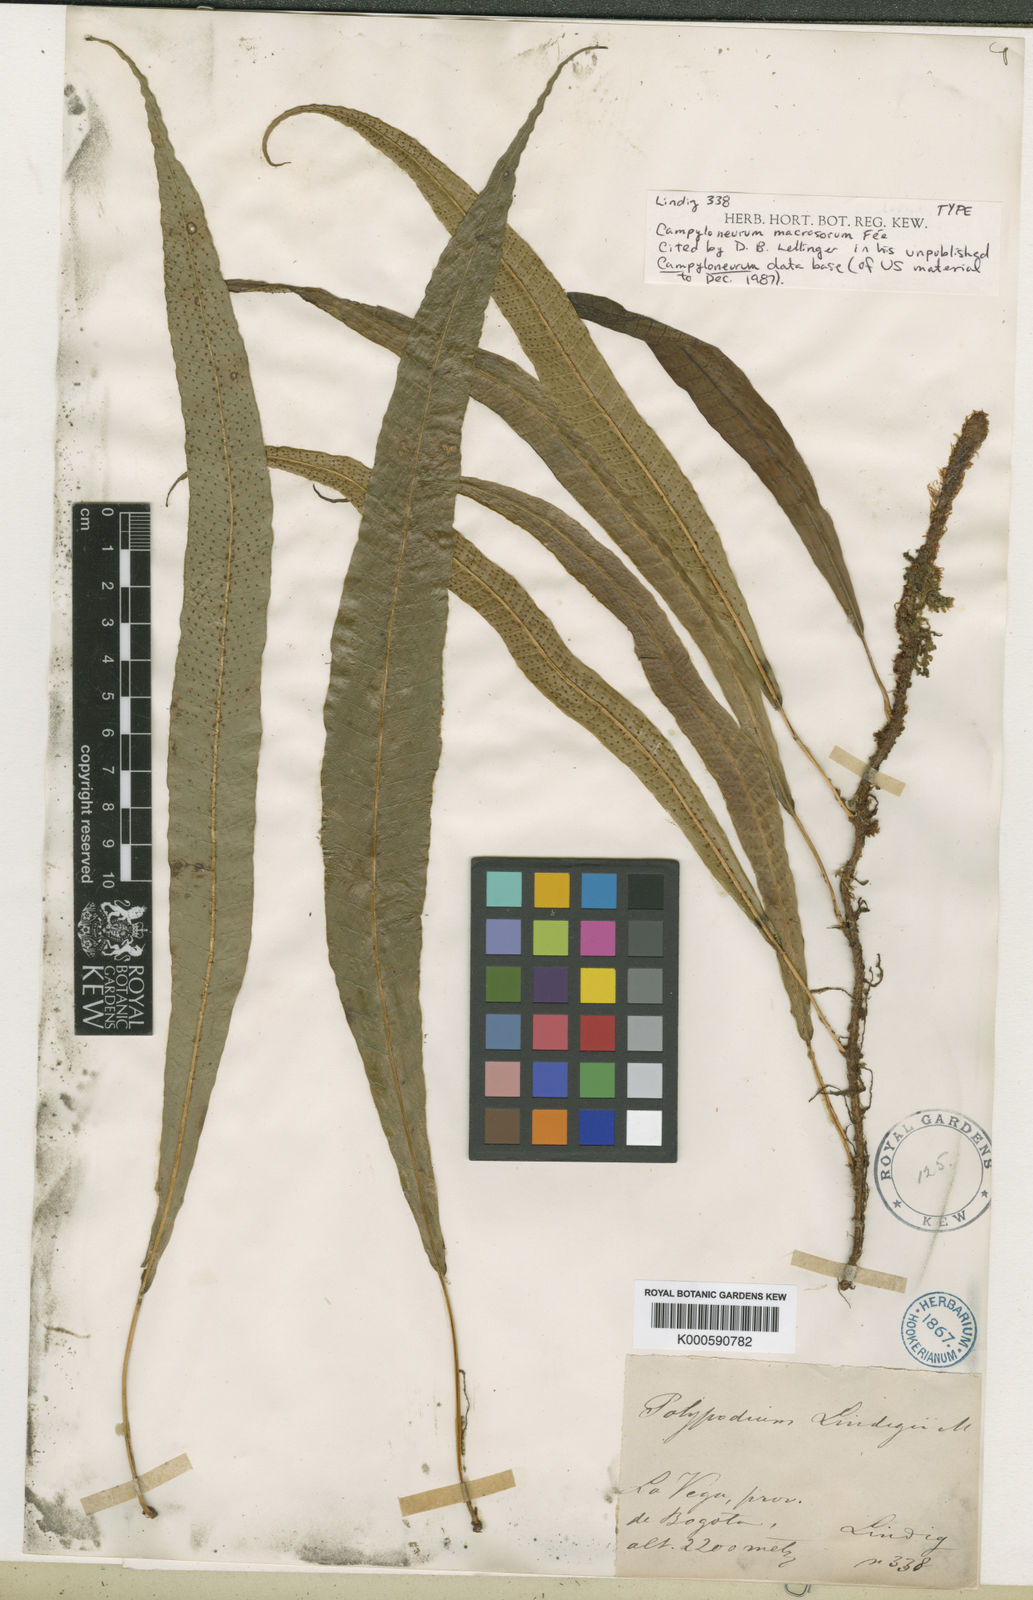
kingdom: Plantae
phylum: Tracheophyta
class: Polypodiopsida
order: Polypodiales
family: Polypodiaceae
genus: Campyloneurum
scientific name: Campyloneurum
